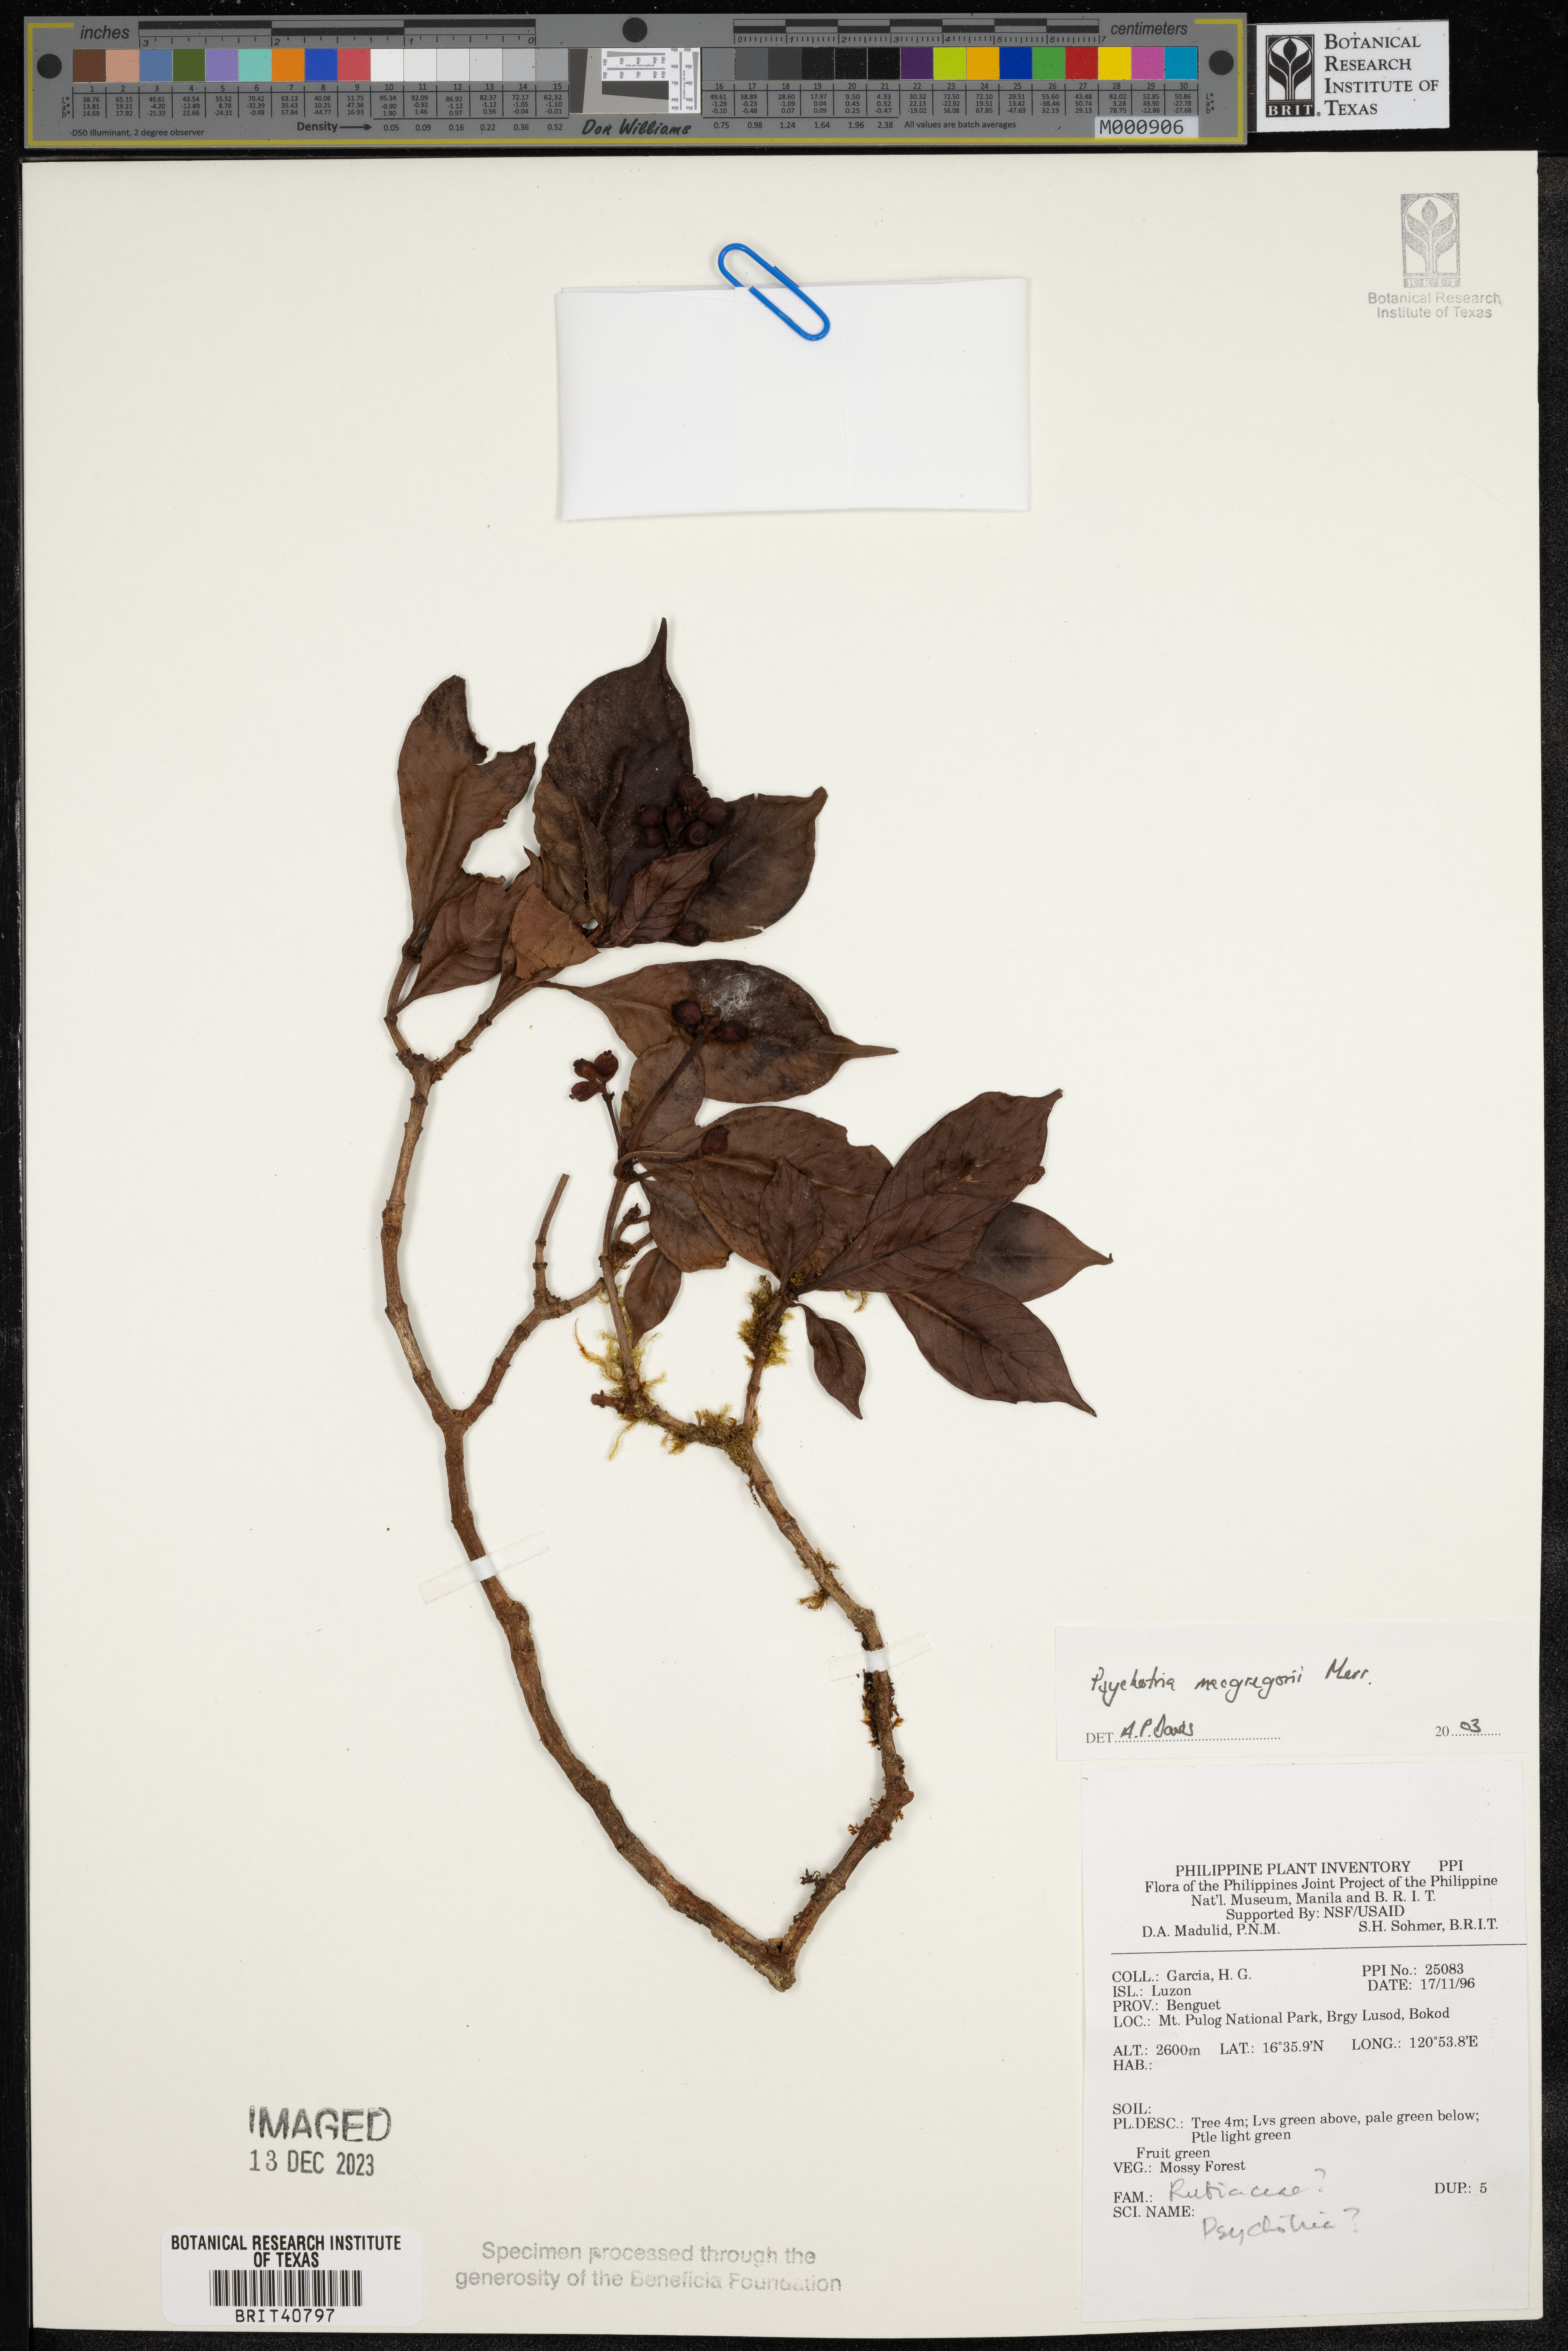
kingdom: Plantae
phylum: Tracheophyta
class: Magnoliopsida
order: Gentianales
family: Rubiaceae
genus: Psychotria
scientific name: Psychotria macgregorii
